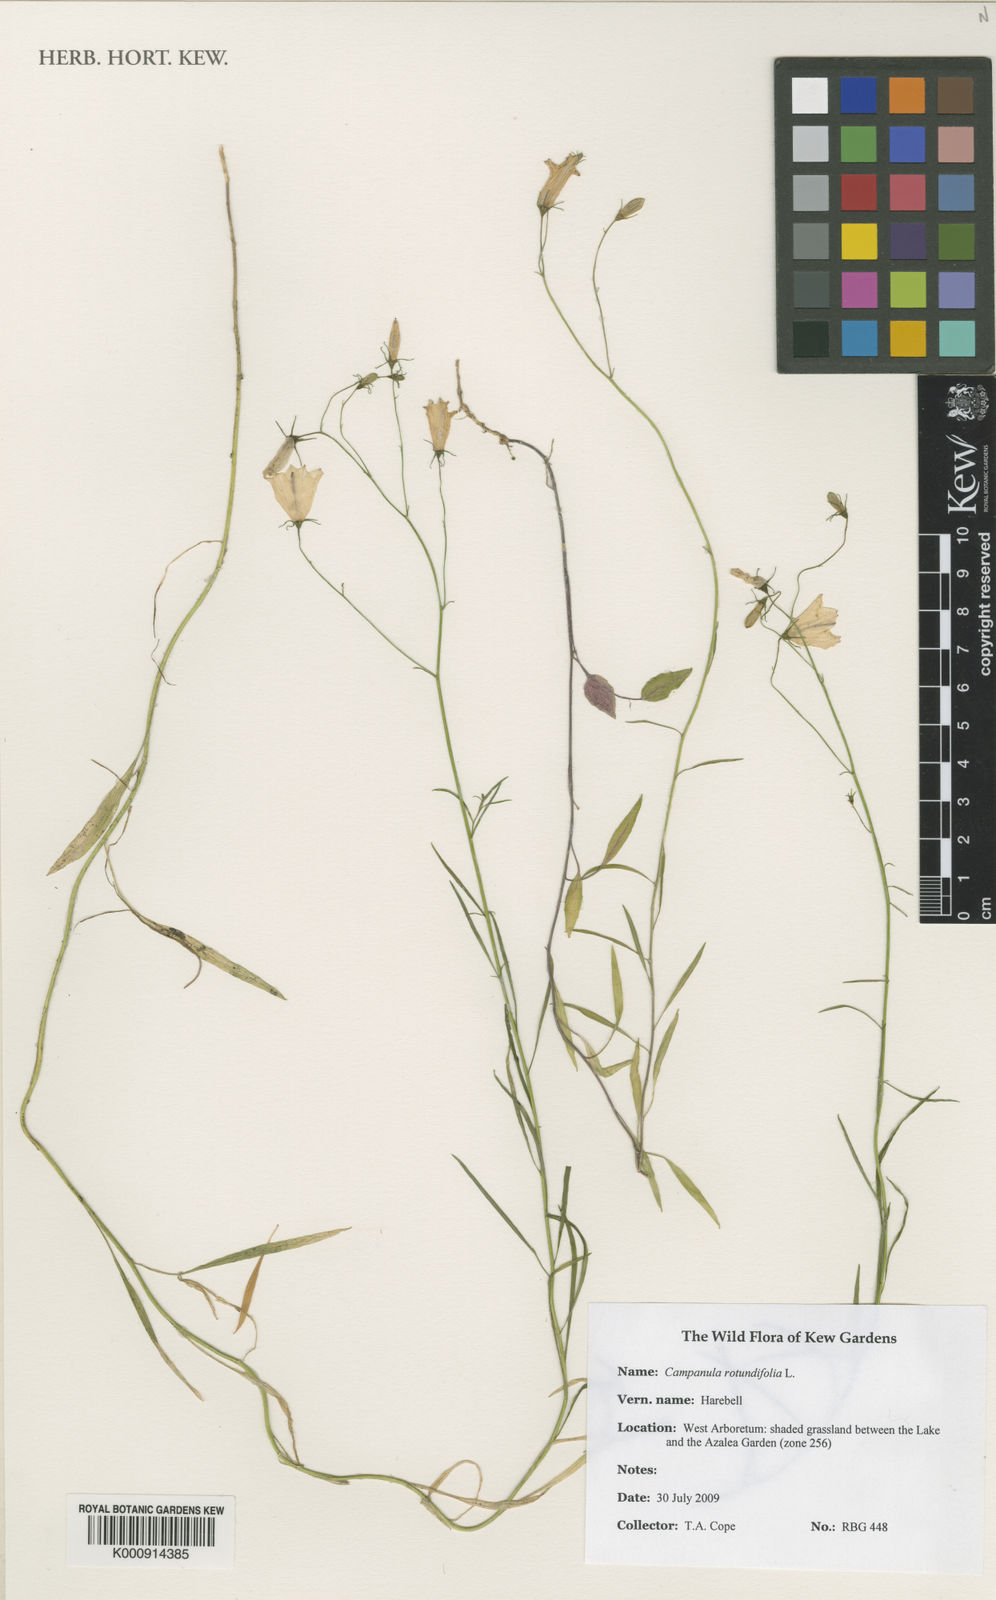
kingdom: Plantae
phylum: Tracheophyta
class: Magnoliopsida
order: Asterales
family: Campanulaceae
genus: Campanula
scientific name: Campanula rotundifolia
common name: Harebell
